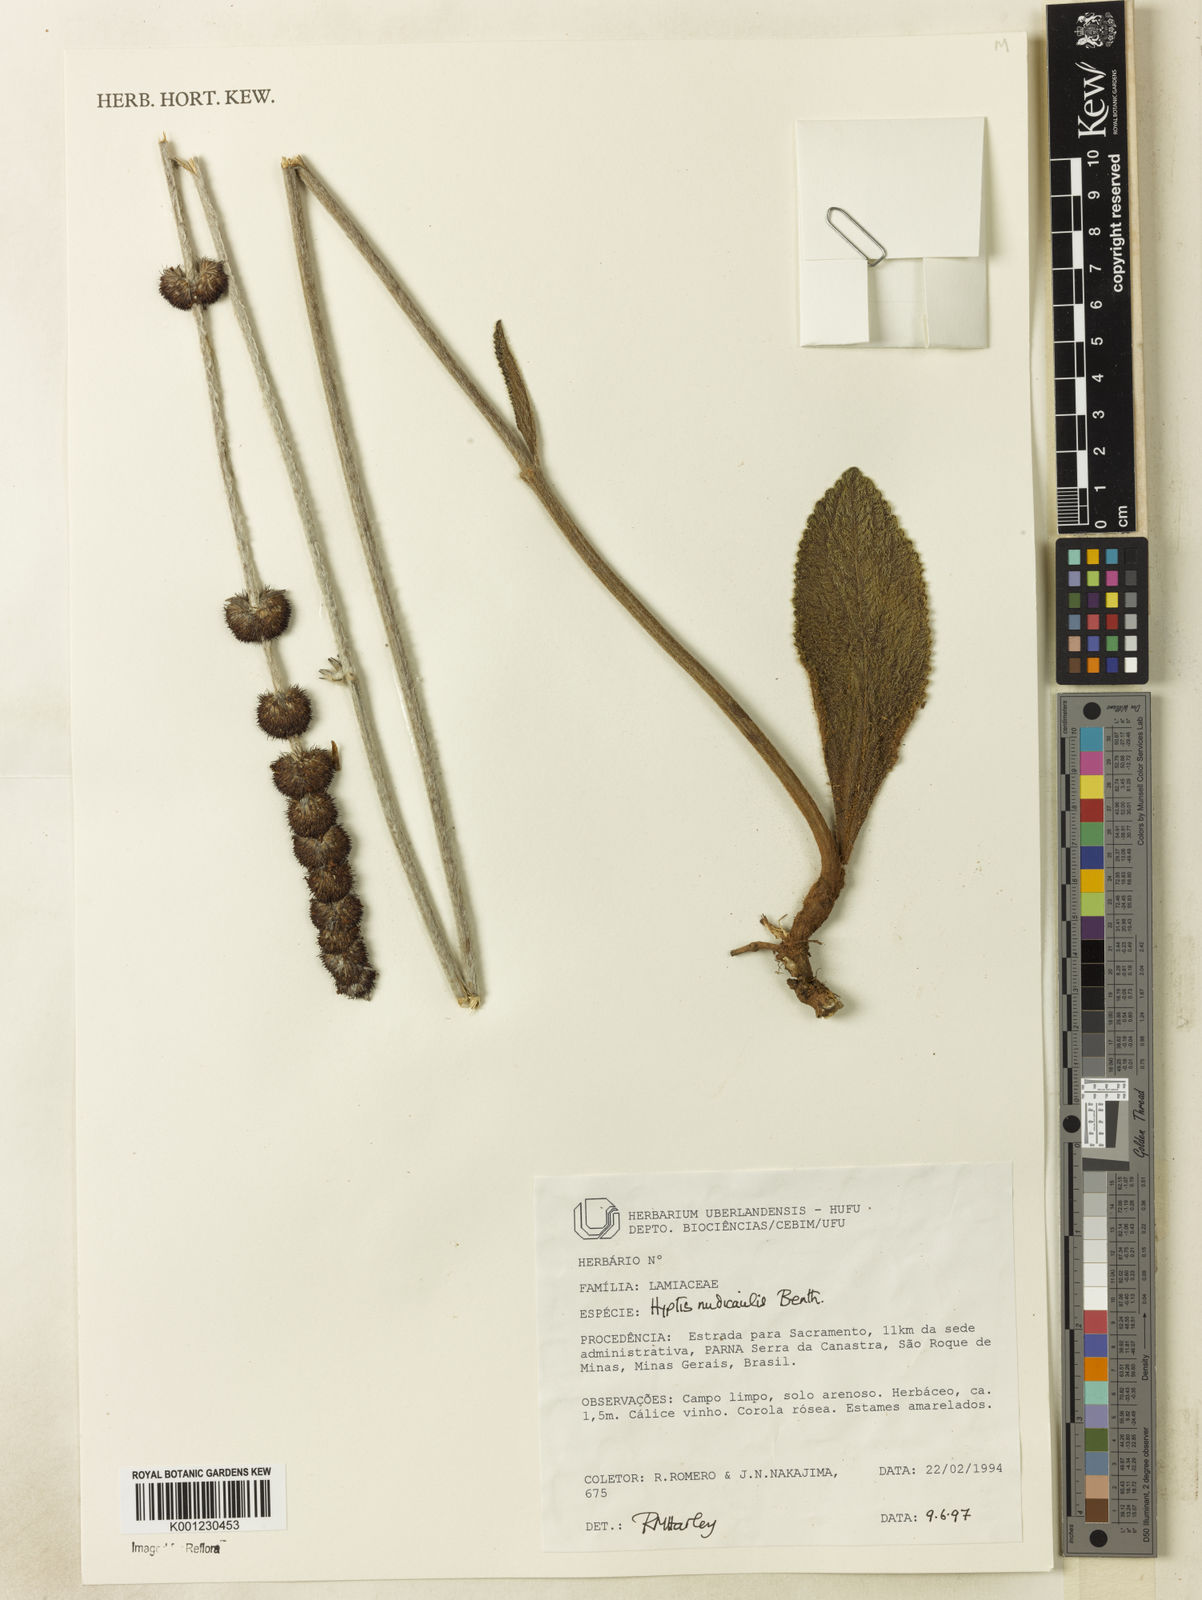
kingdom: Plantae
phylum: Tracheophyta
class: Magnoliopsida
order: Lamiales
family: Lamiaceae
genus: Hyptis
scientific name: Hyptis nudicaulis
